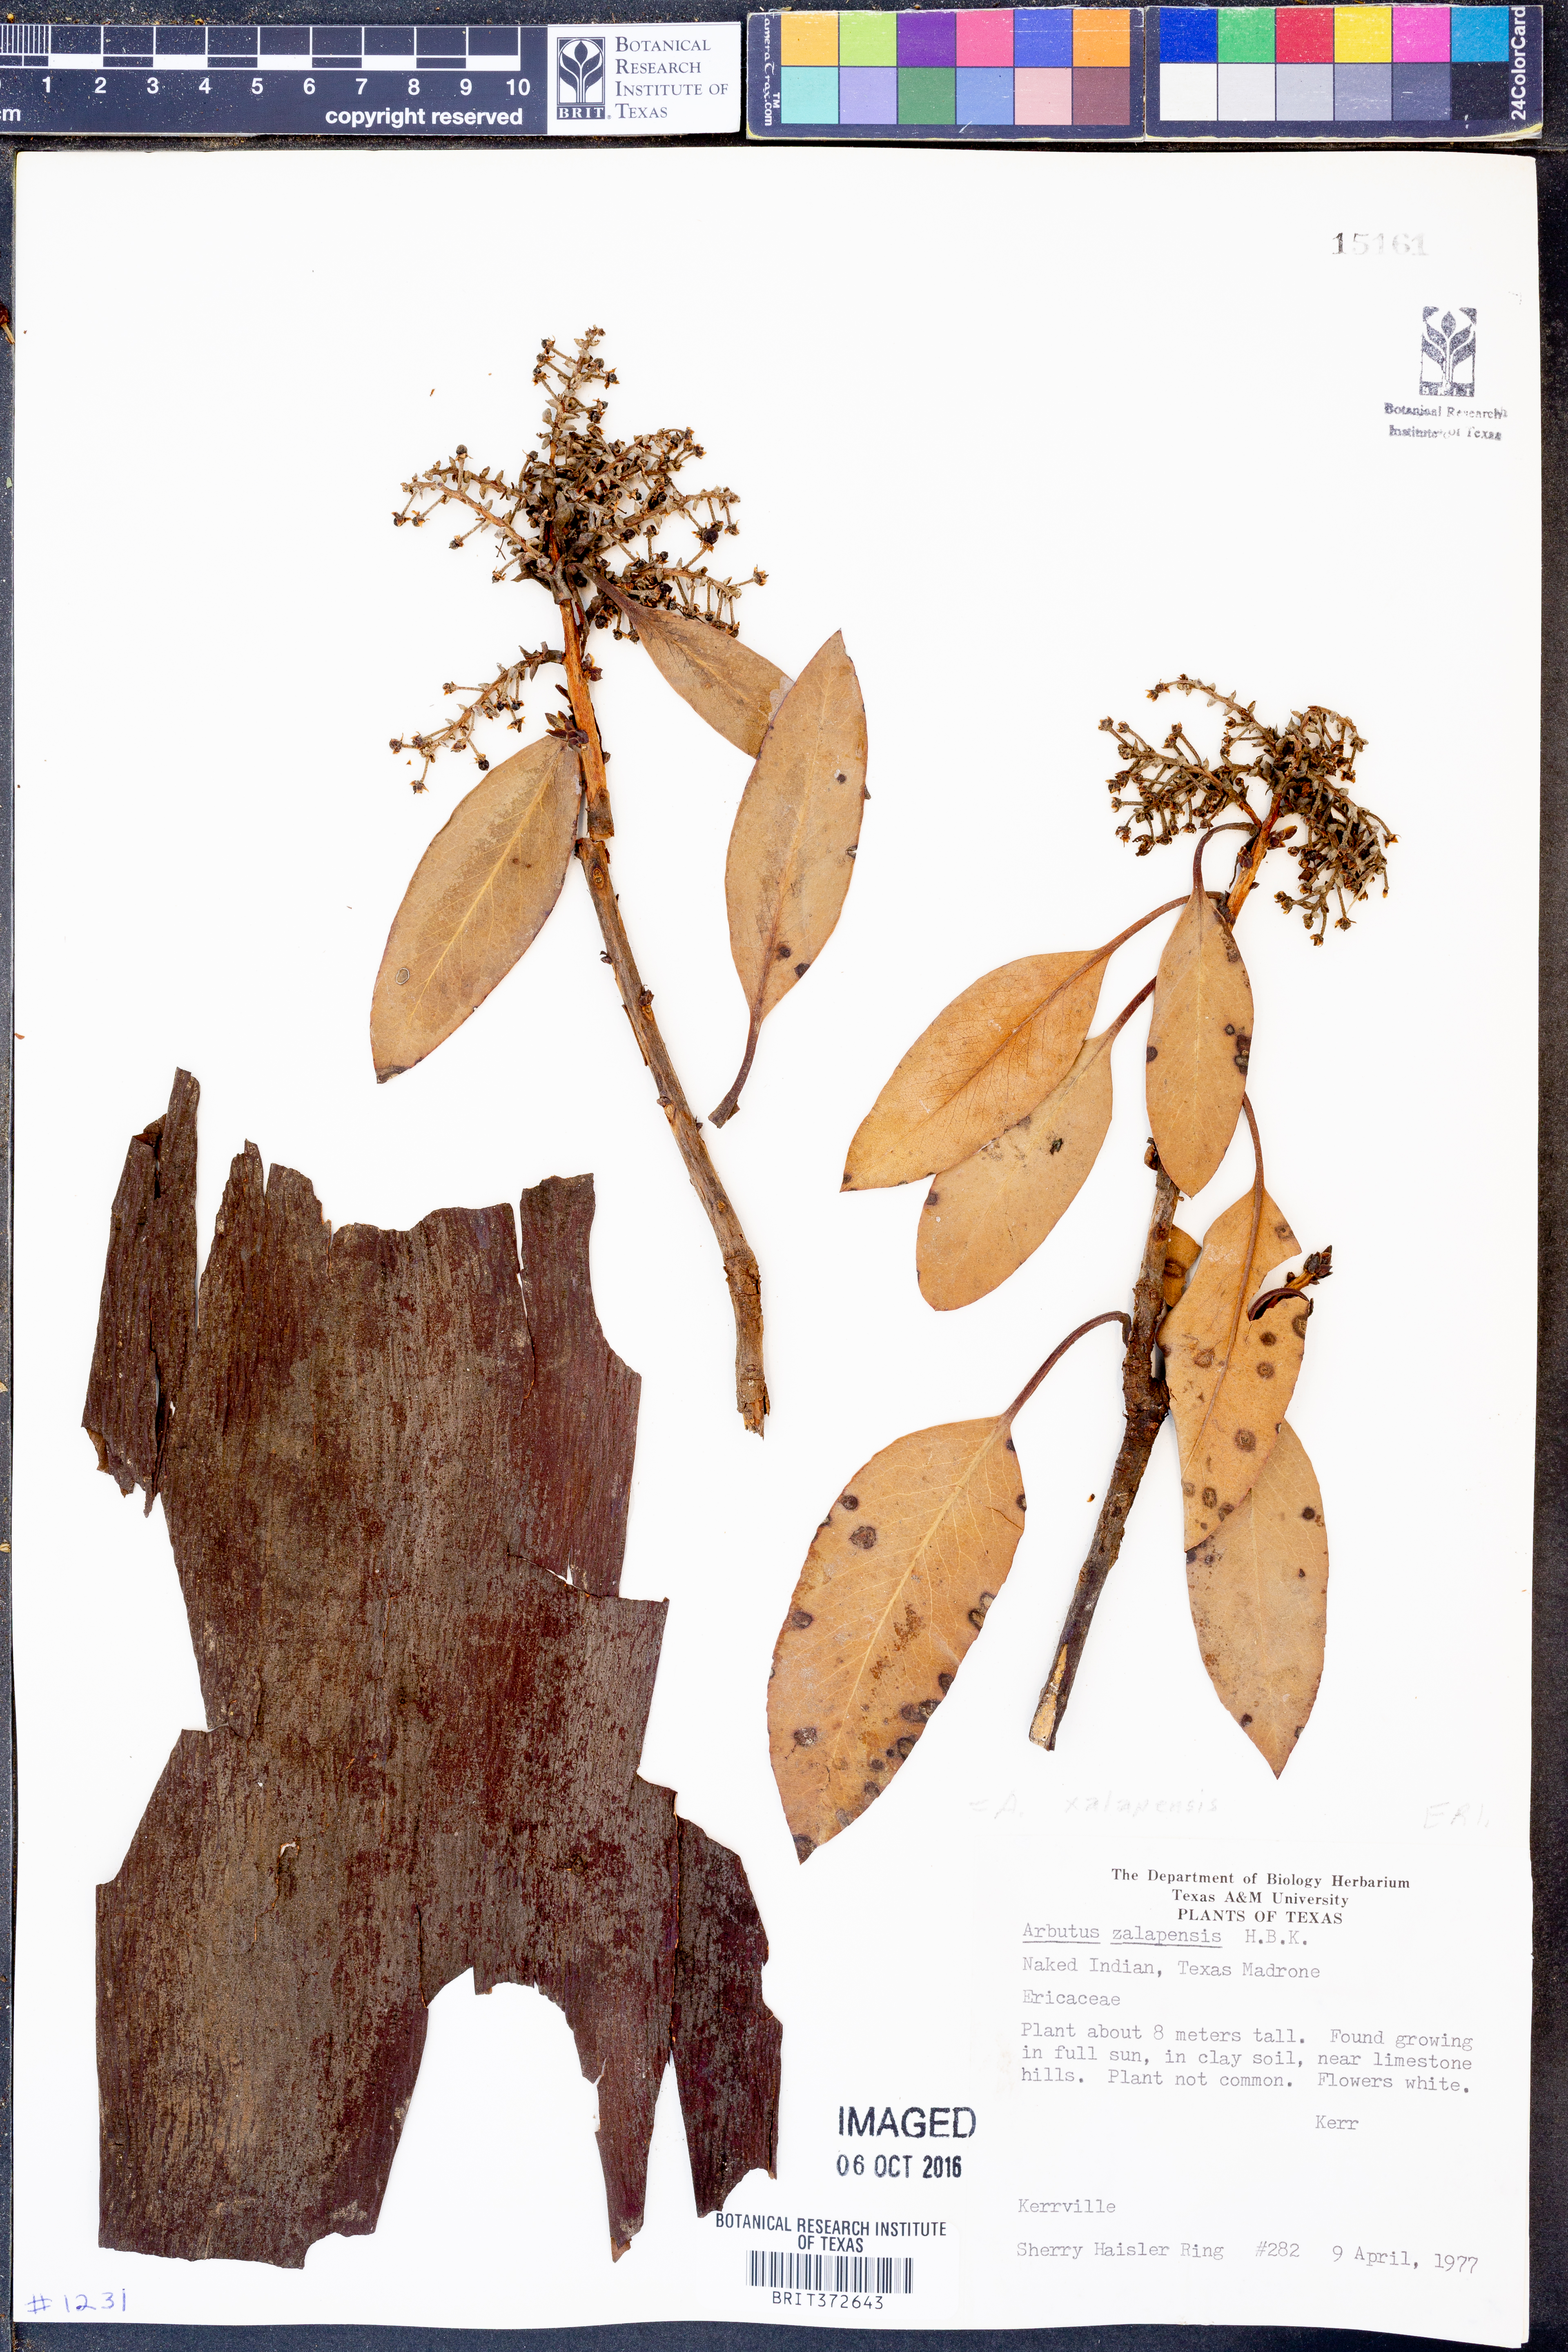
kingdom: Plantae
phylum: Tracheophyta
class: Magnoliopsida
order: Ericales
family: Ericaceae
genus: Arbutus
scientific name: Arbutus xalapensis
